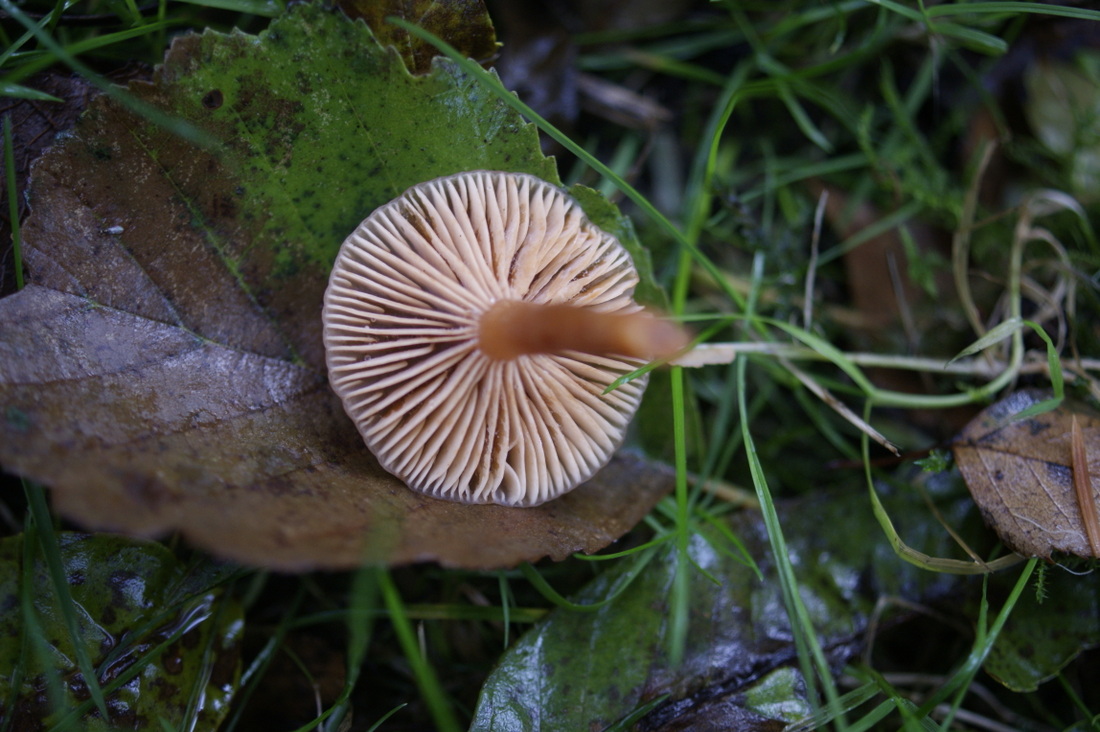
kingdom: Fungi
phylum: Basidiomycota
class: Agaricomycetes
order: Russulales
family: Russulaceae
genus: Lactarius
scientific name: Lactarius cyathuliformis
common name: mørkøjet mælkehat
